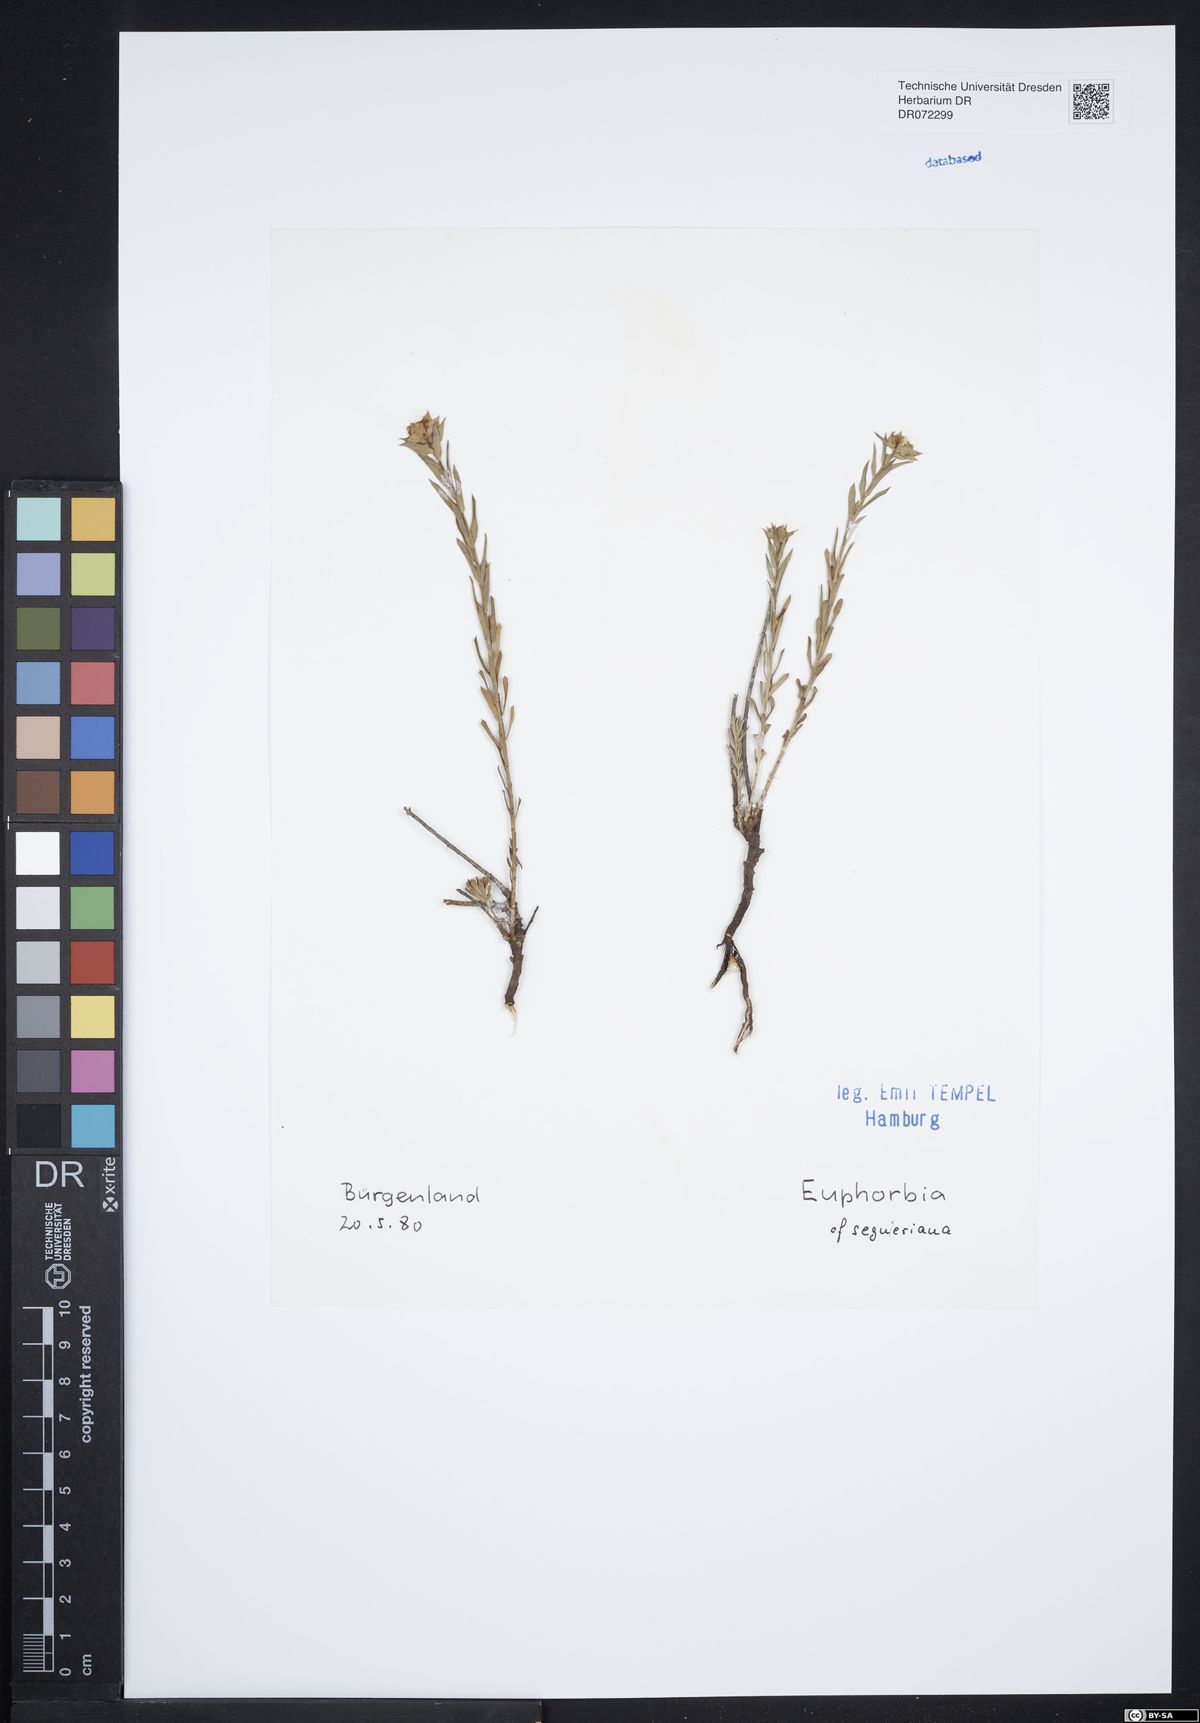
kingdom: Plantae
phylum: Tracheophyta
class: Magnoliopsida
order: Malpighiales
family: Euphorbiaceae
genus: Euphorbia
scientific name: Euphorbia seguieriana
